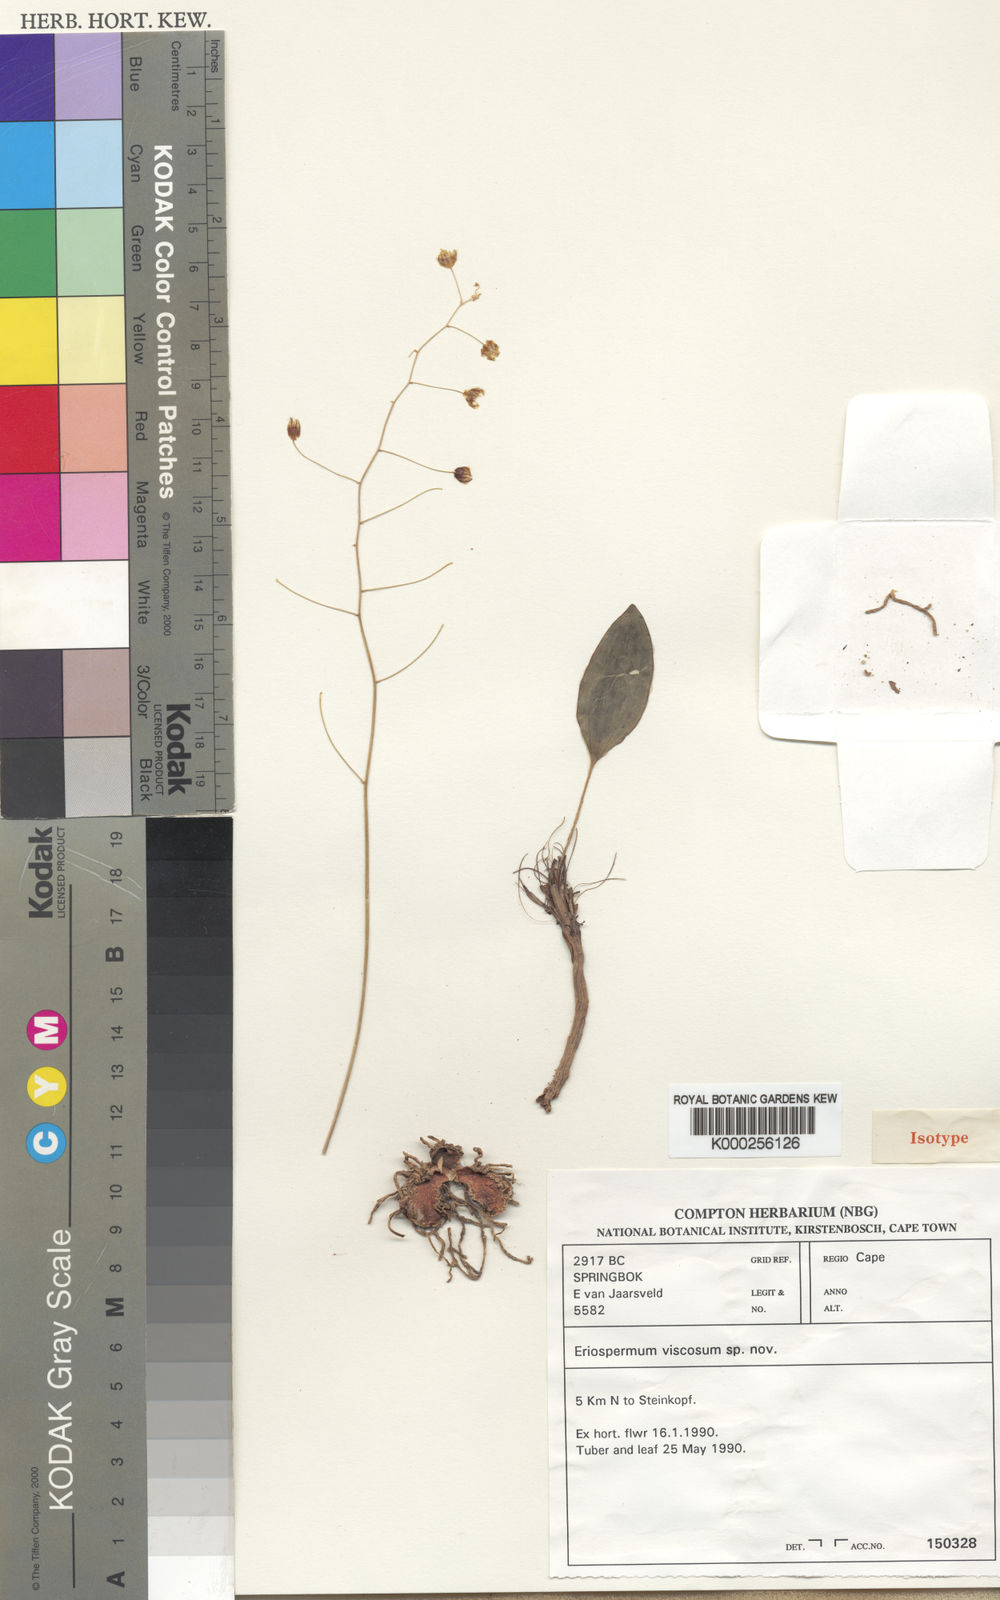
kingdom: Plantae
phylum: Tracheophyta
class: Liliopsida
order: Asparagales
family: Asparagaceae
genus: Eriospermum
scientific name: Eriospermum viscosum
